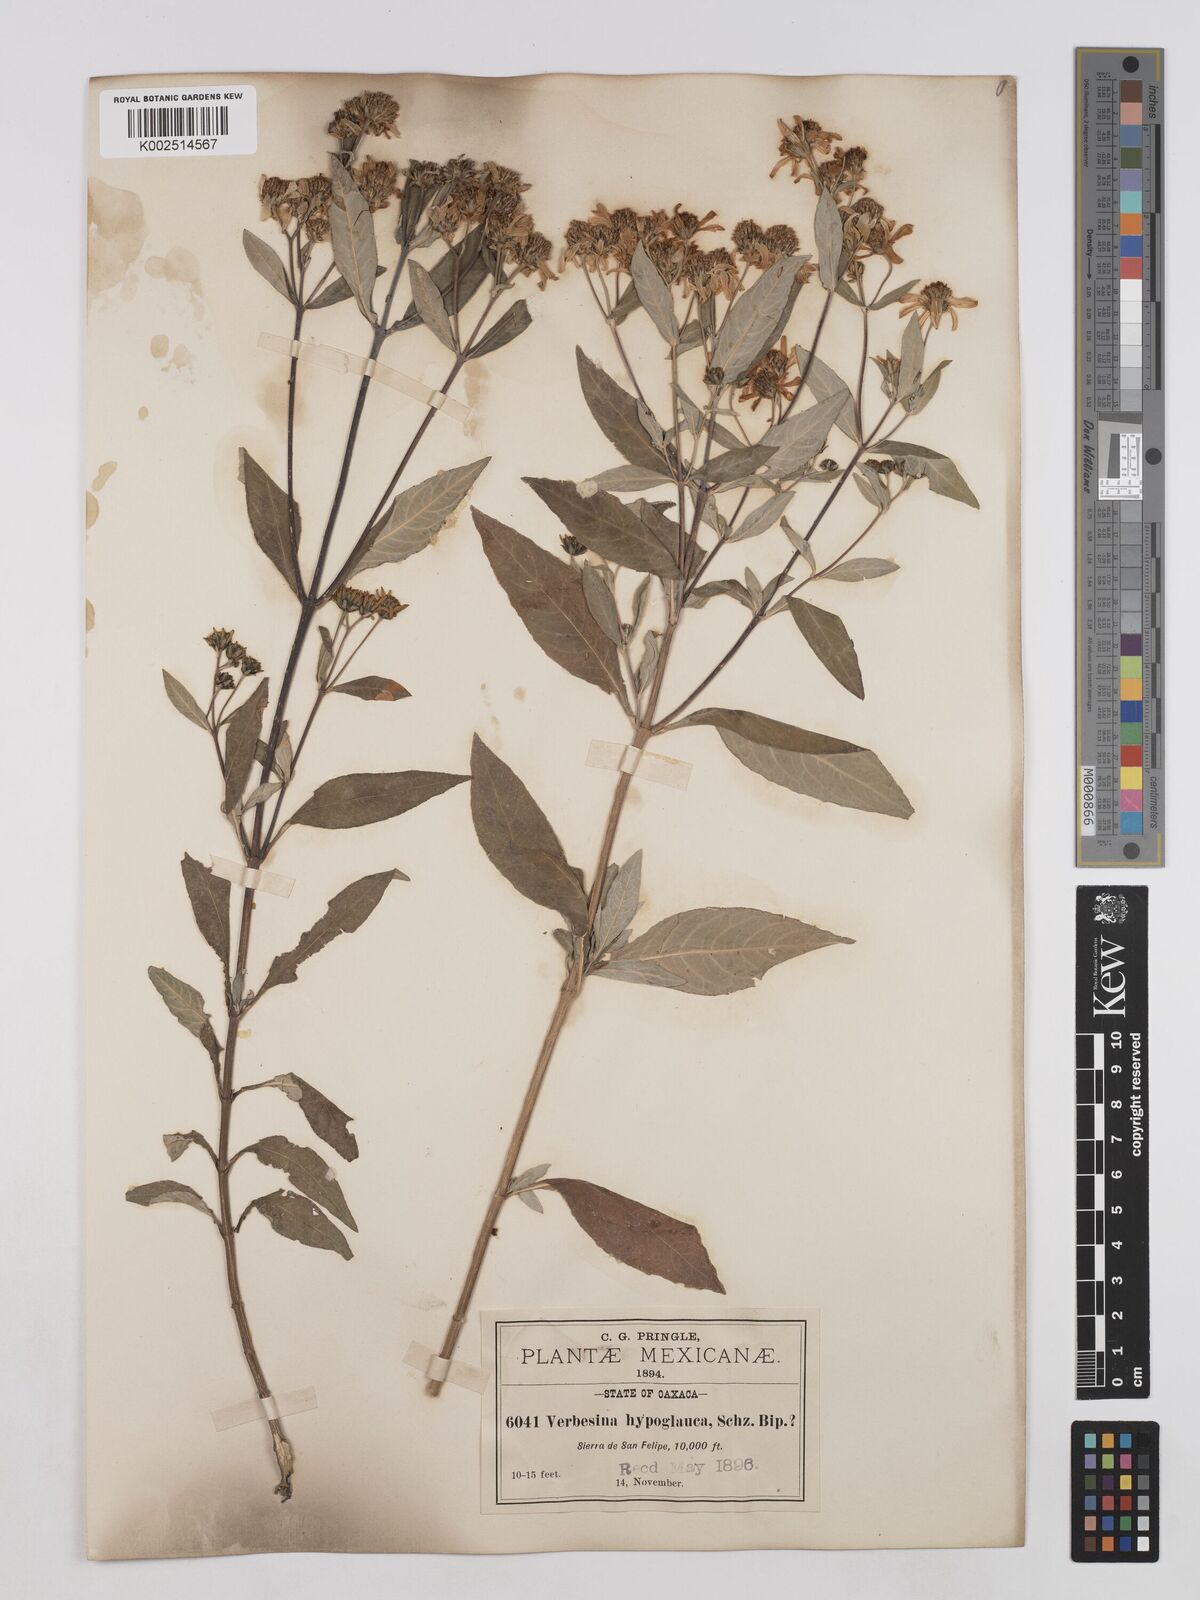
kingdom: Plantae
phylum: Tracheophyta
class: Magnoliopsida
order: Asterales
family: Asteraceae
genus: Verbesina
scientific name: Verbesina hypoglauca
